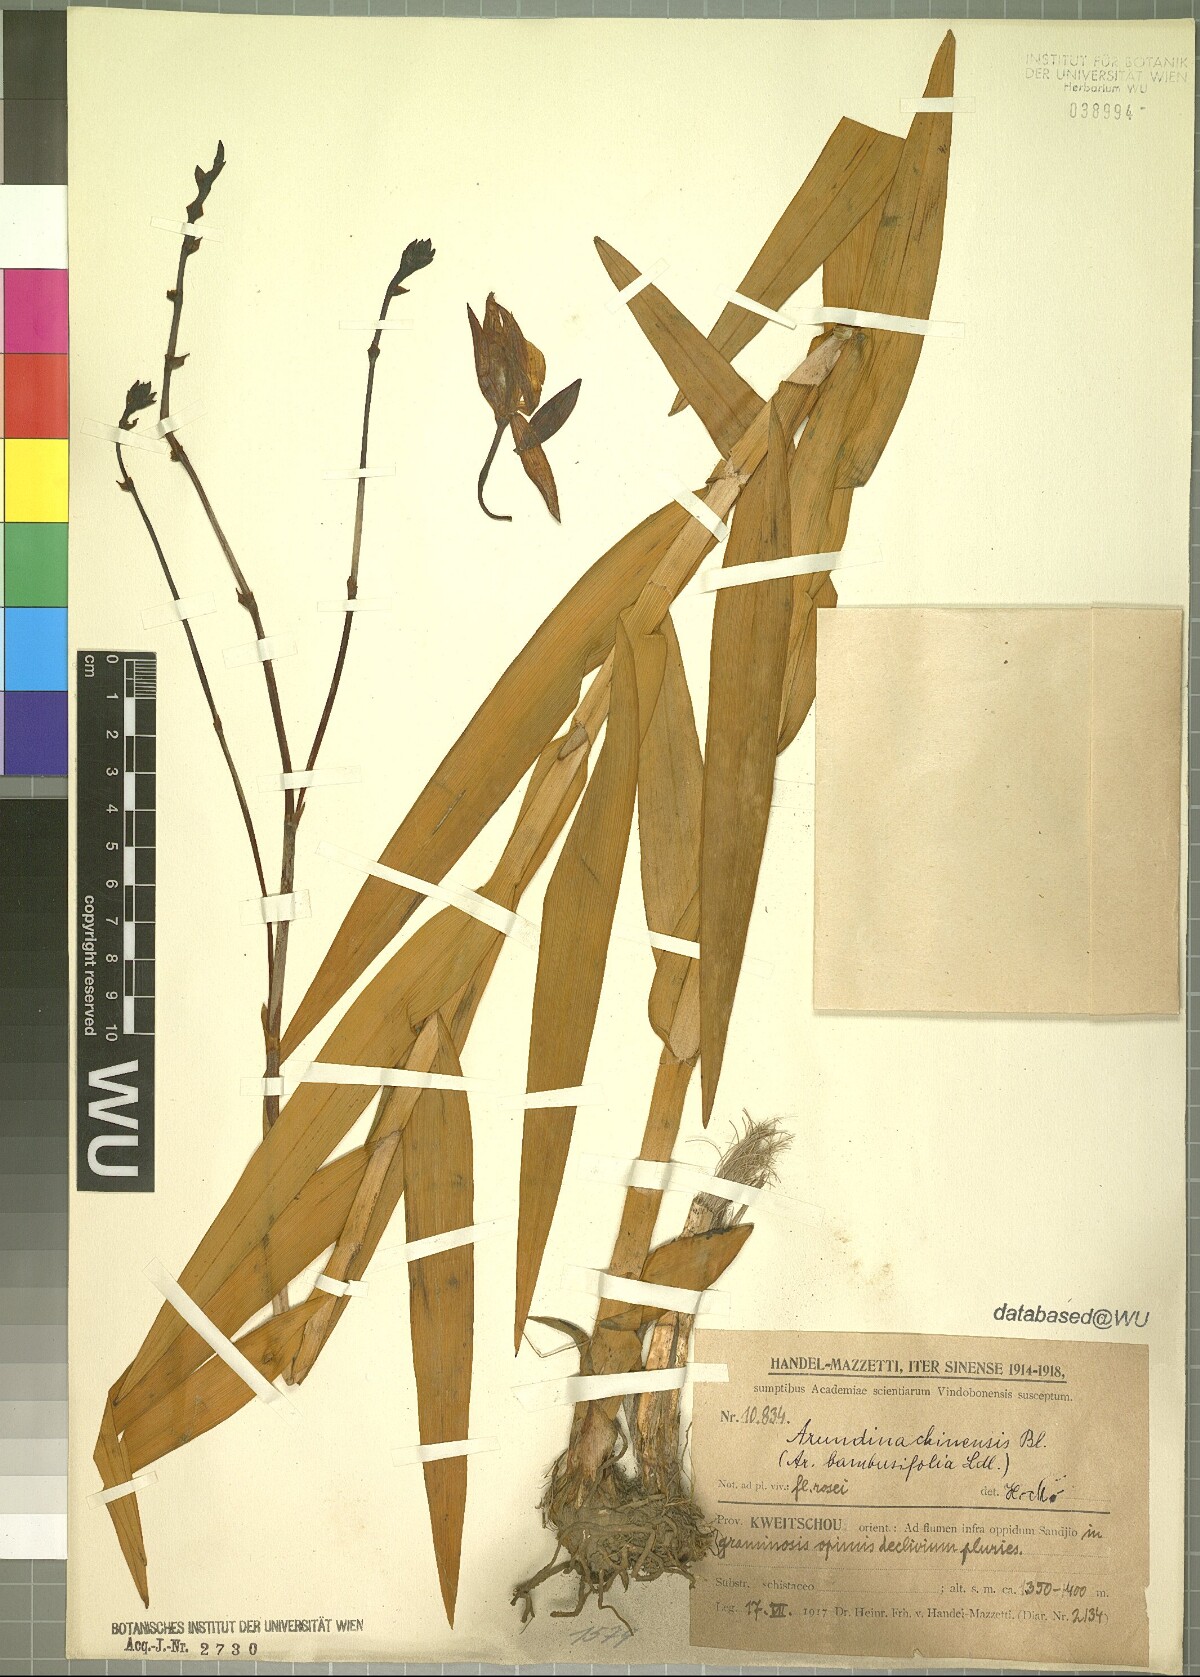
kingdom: Plantae
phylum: Tracheophyta
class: Liliopsida
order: Asparagales
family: Orchidaceae
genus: Arundina
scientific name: Arundina graminifolia
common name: Bamboo orchid
